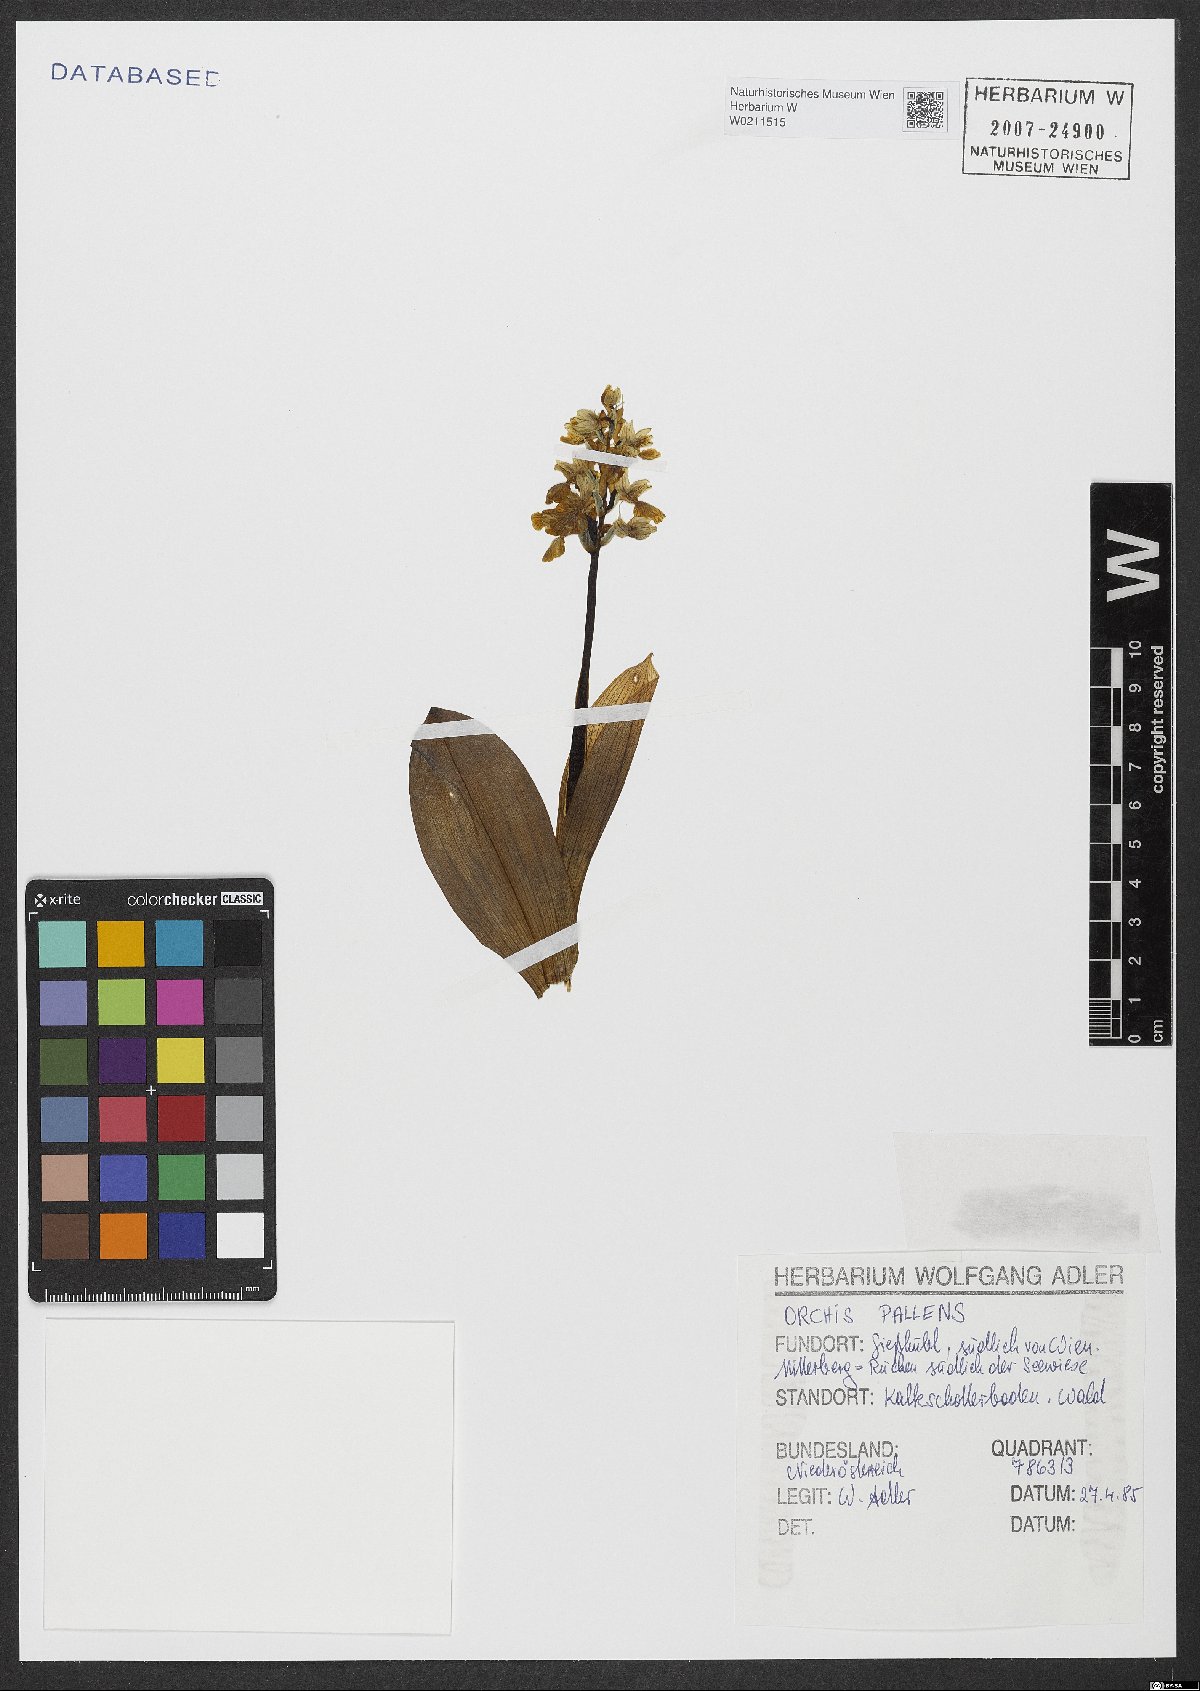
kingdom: Plantae
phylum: Tracheophyta
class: Liliopsida
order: Asparagales
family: Orchidaceae
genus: Orchis
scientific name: Orchis pallens
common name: Pale-flowered orchid
